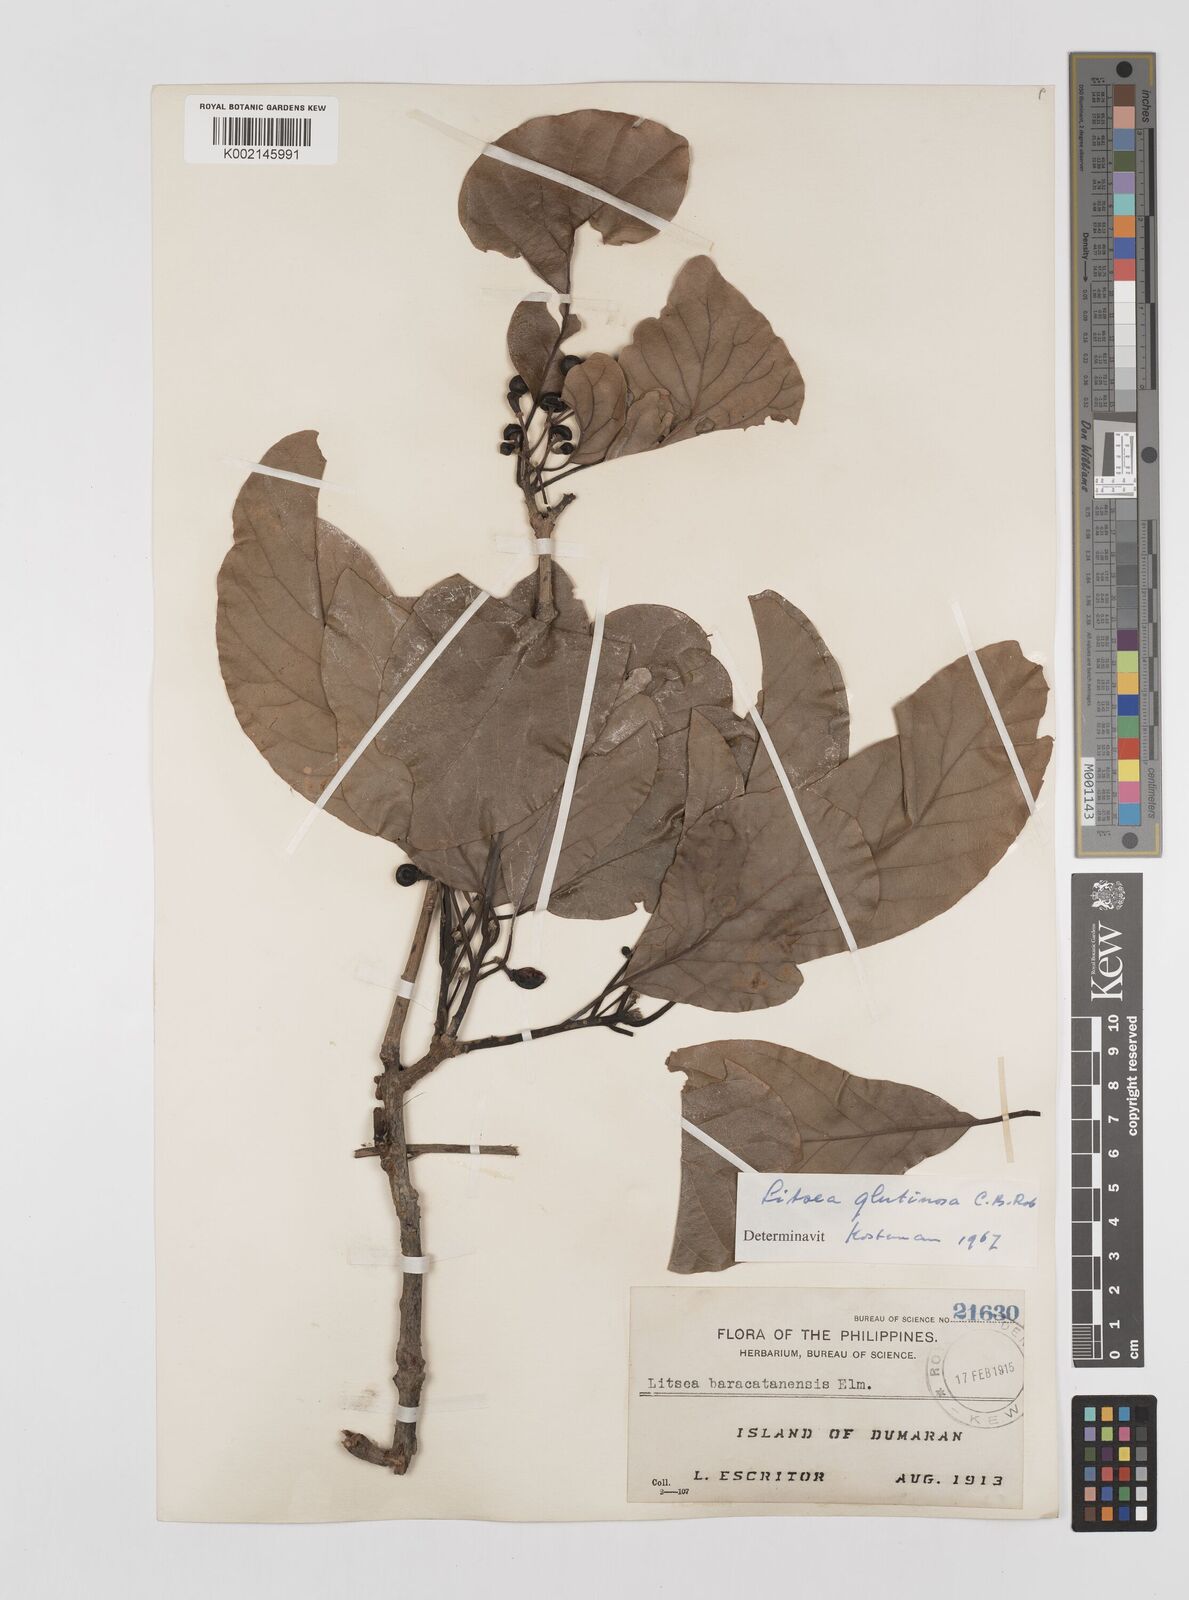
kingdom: Plantae
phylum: Tracheophyta
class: Magnoliopsida
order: Laurales
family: Lauraceae
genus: Litsea
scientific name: Litsea glutinosa
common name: Indian-laurel
